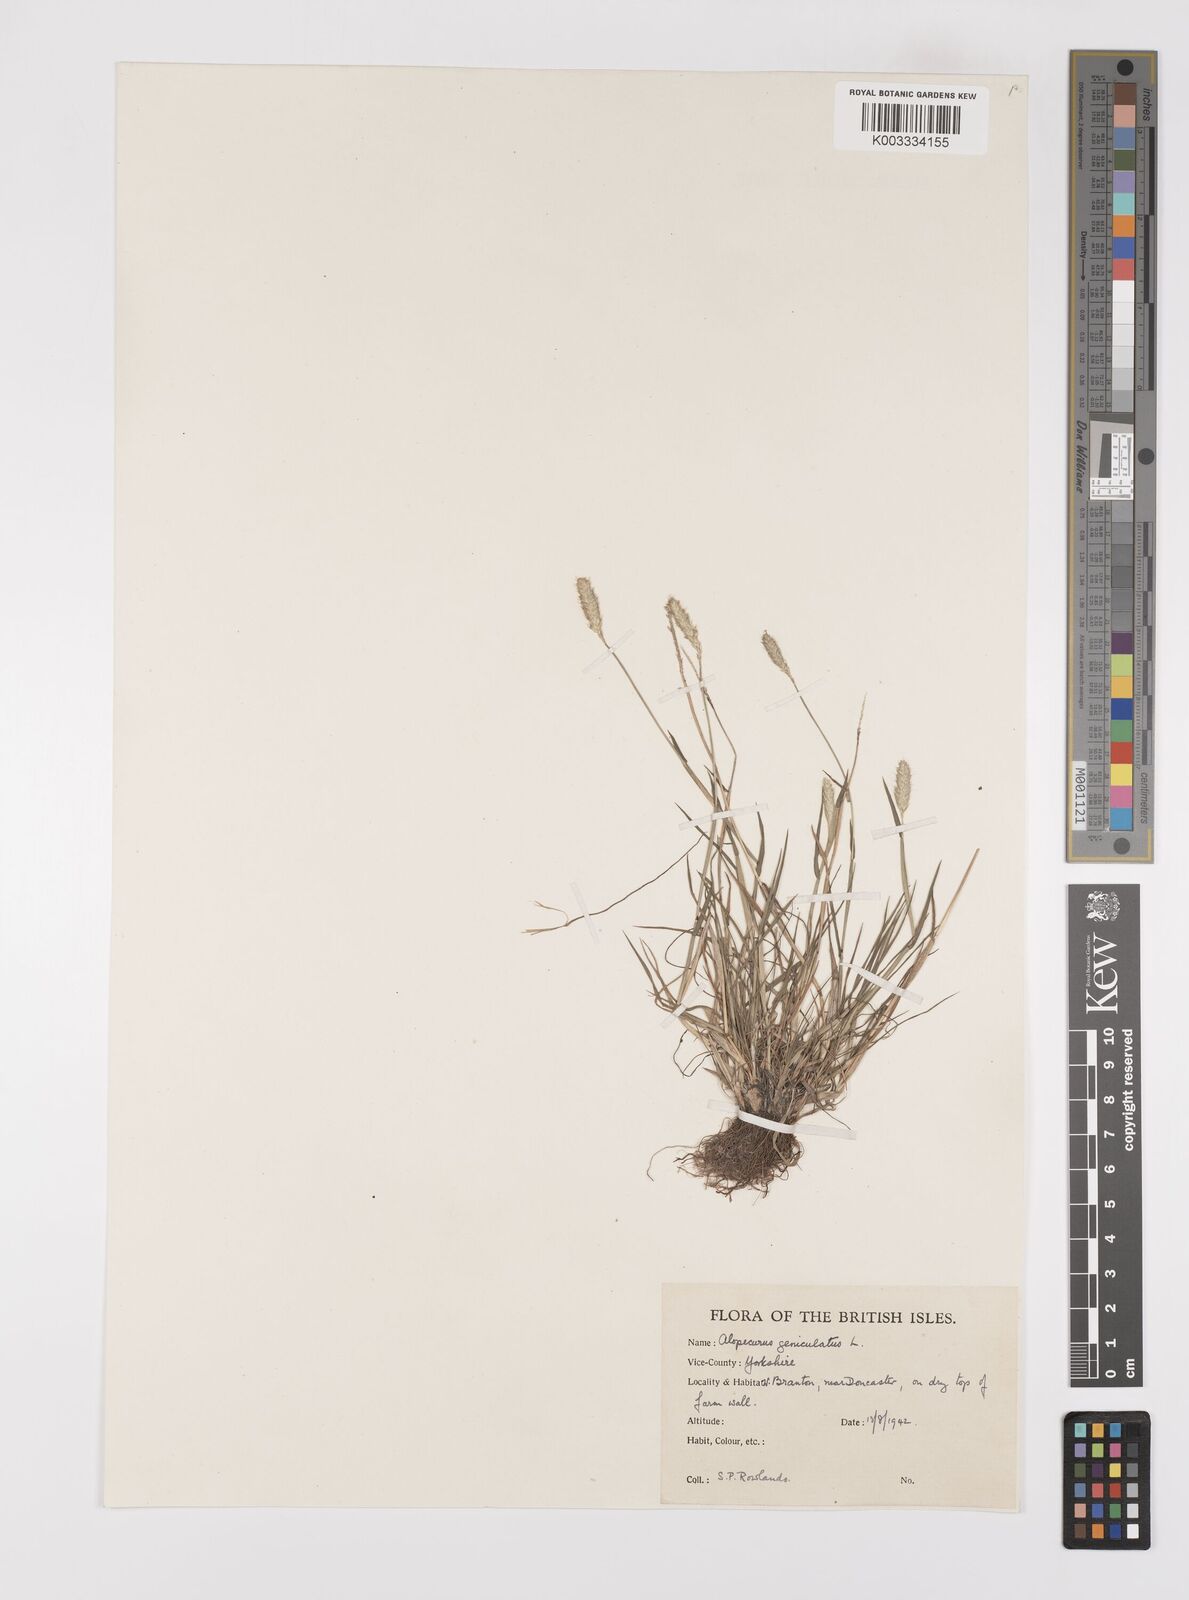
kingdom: Plantae
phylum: Tracheophyta
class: Liliopsida
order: Poales
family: Poaceae
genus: Alopecurus
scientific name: Alopecurus geniculatus
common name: Water foxtail
